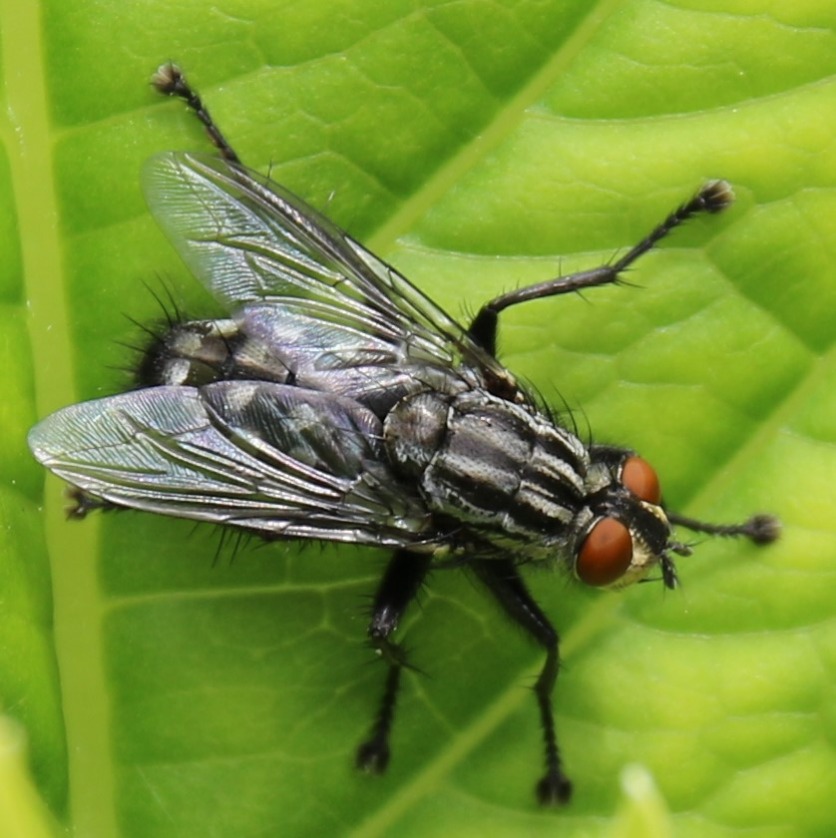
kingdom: Animalia
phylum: Arthropoda
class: Insecta
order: Diptera
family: Sarcophagidae
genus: Sarcophaga
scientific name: Sarcophaga
